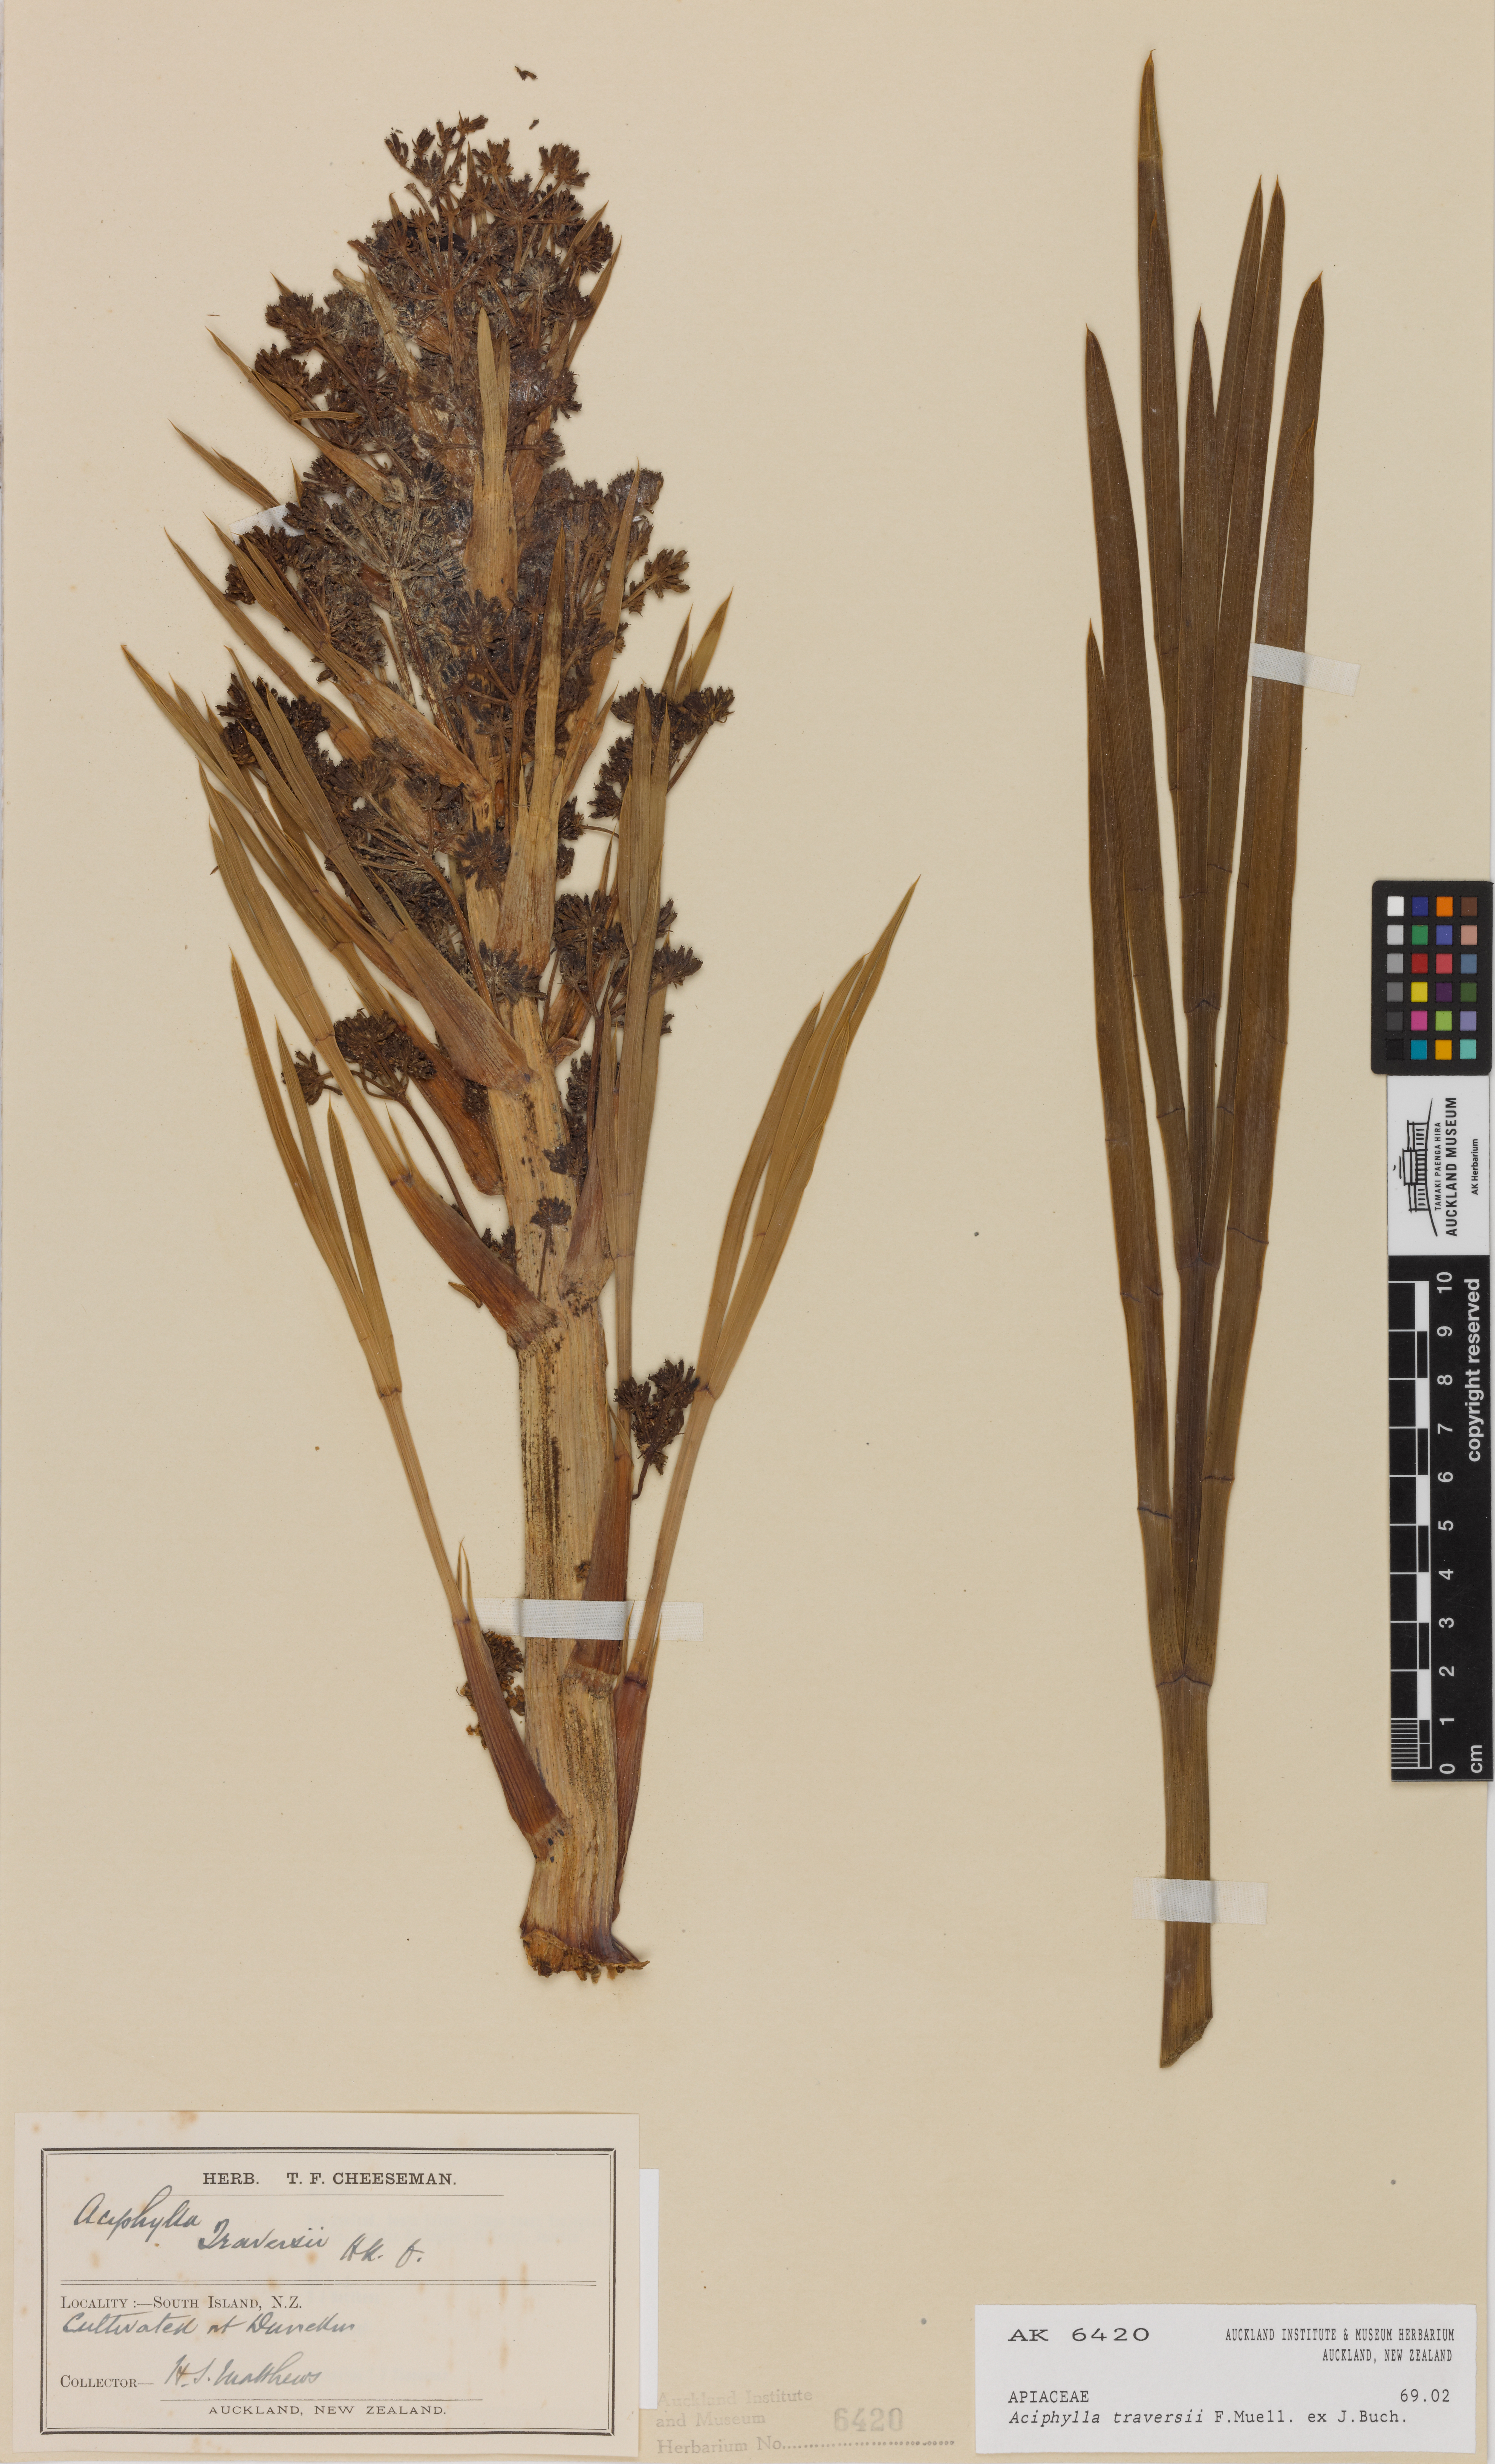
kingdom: Plantae
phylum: Tracheophyta
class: Magnoliopsida
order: Apiales
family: Apiaceae
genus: Aciphylla
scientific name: Aciphylla traversii
